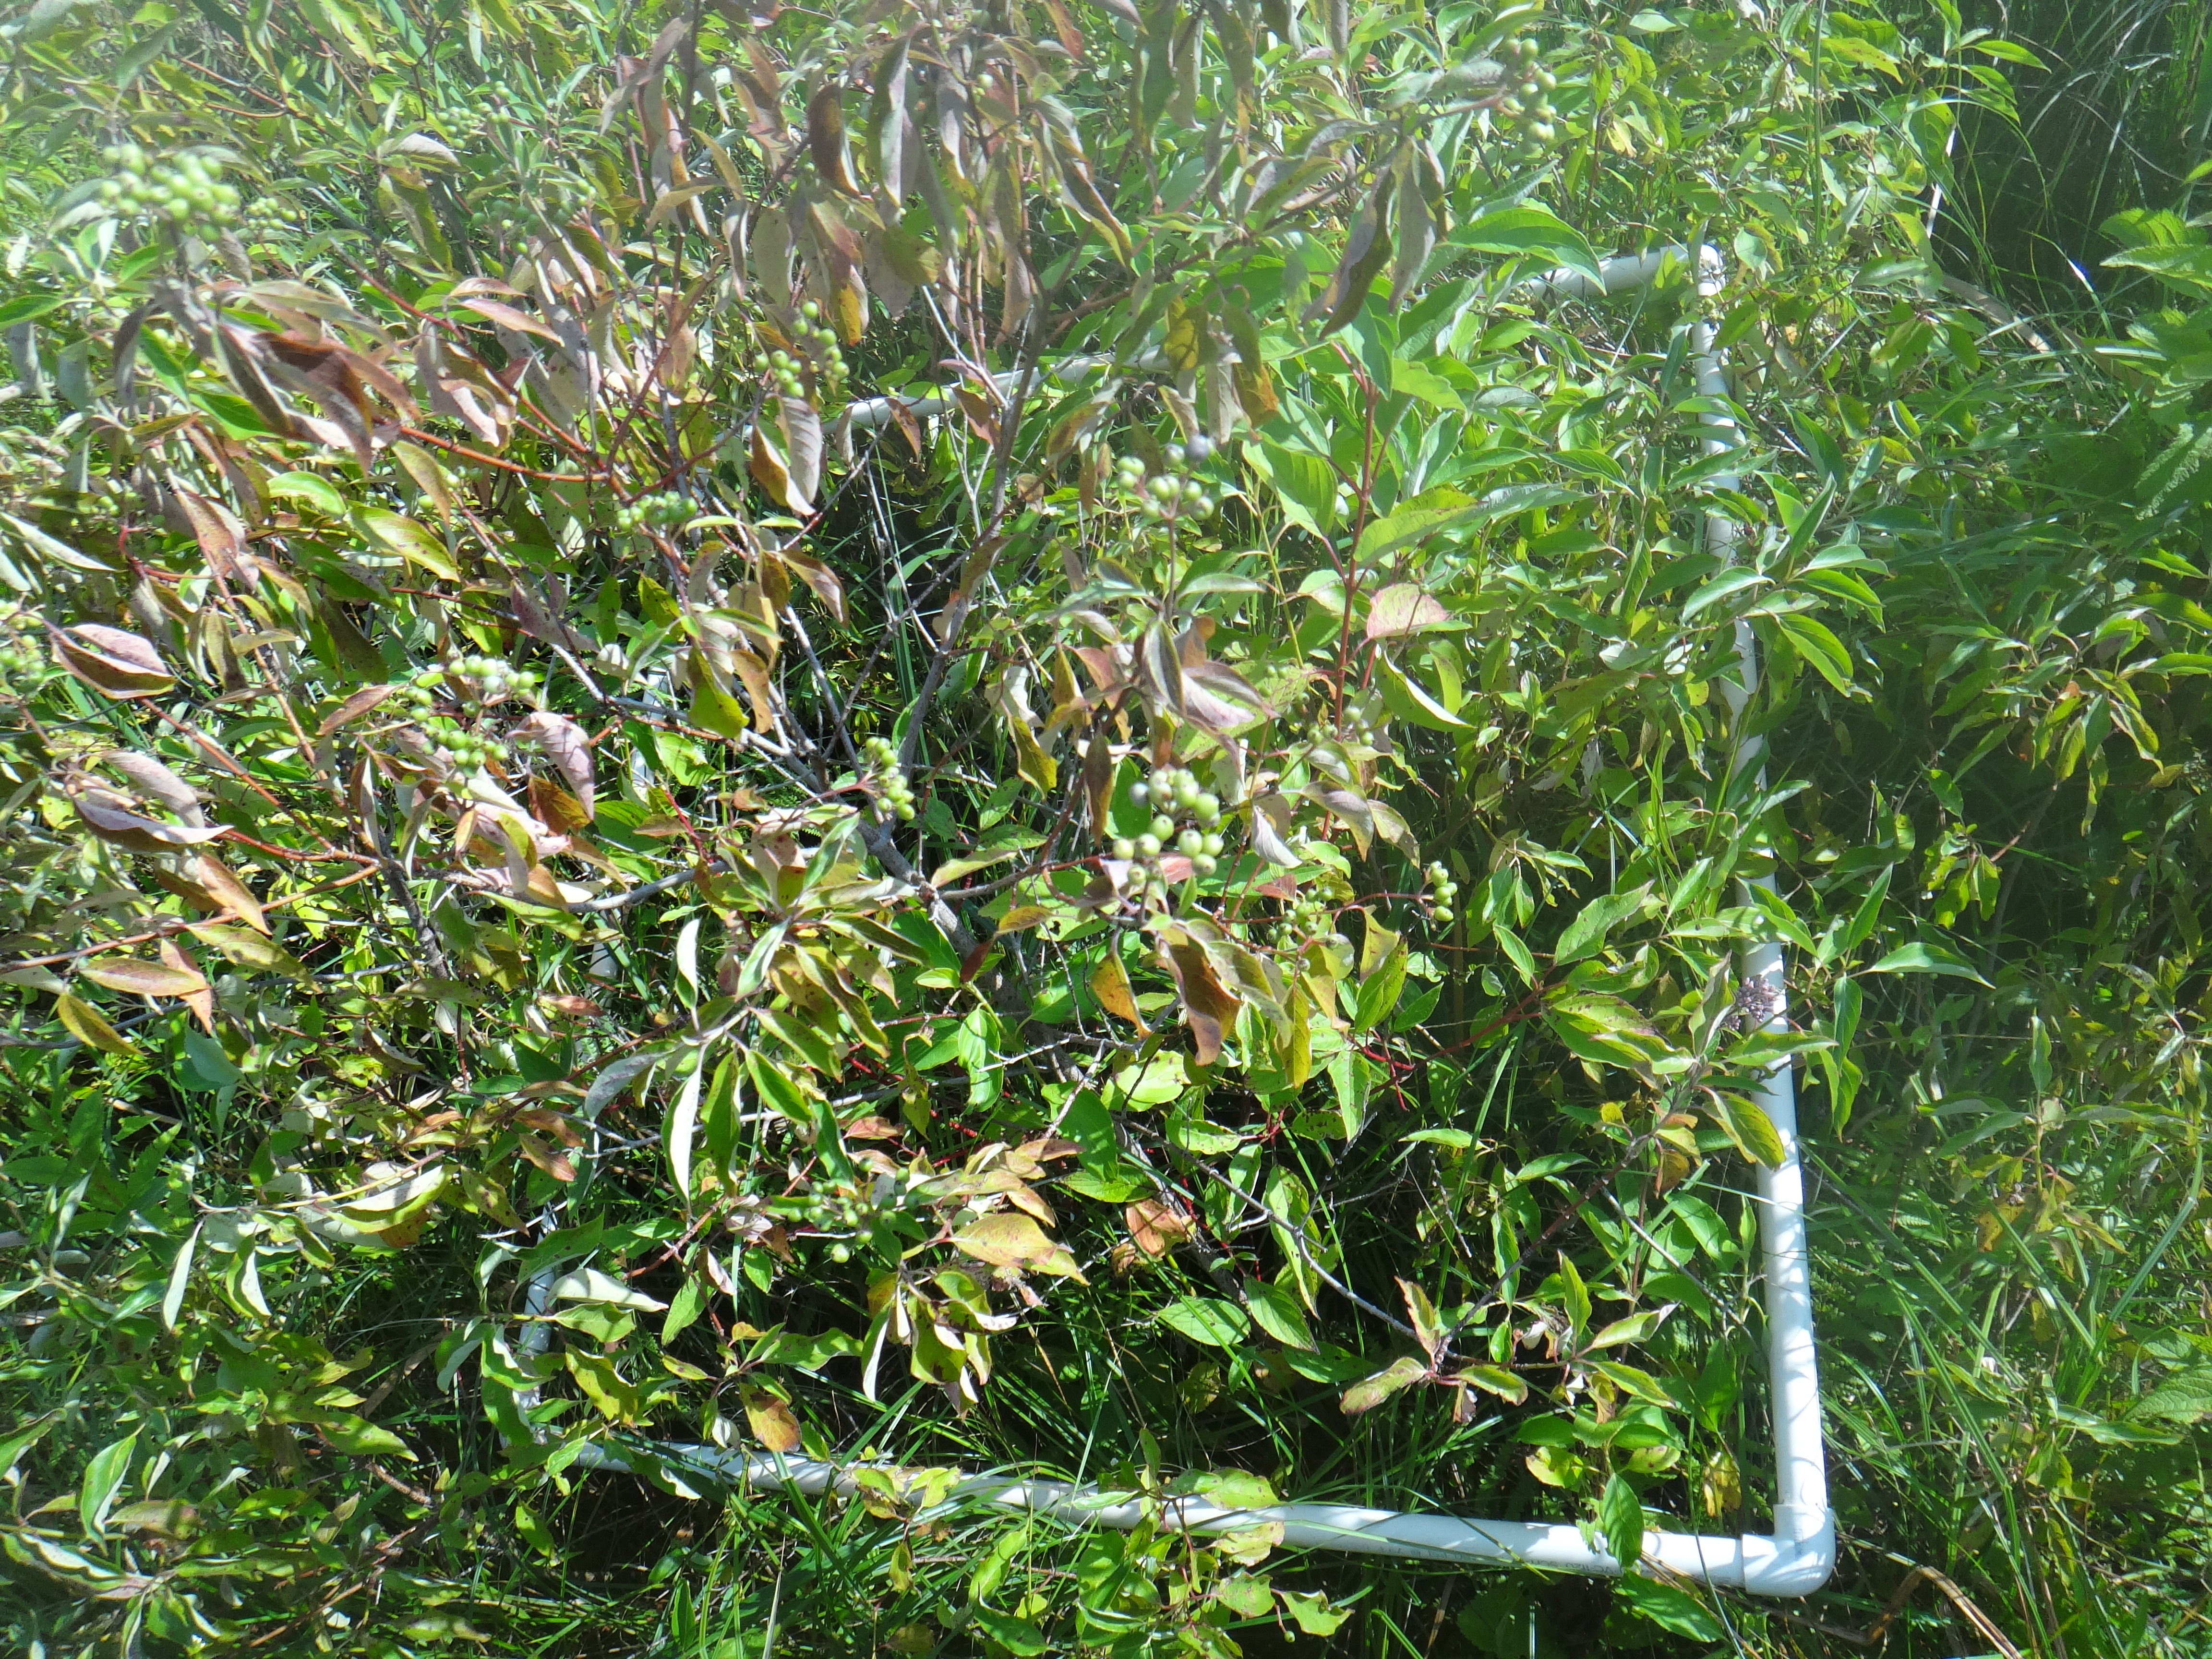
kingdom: Plantae
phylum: Tracheophyta
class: Liliopsida
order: Poales
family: Cyperaceae
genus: Carex
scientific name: Carex aquatilis
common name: Water sedge
